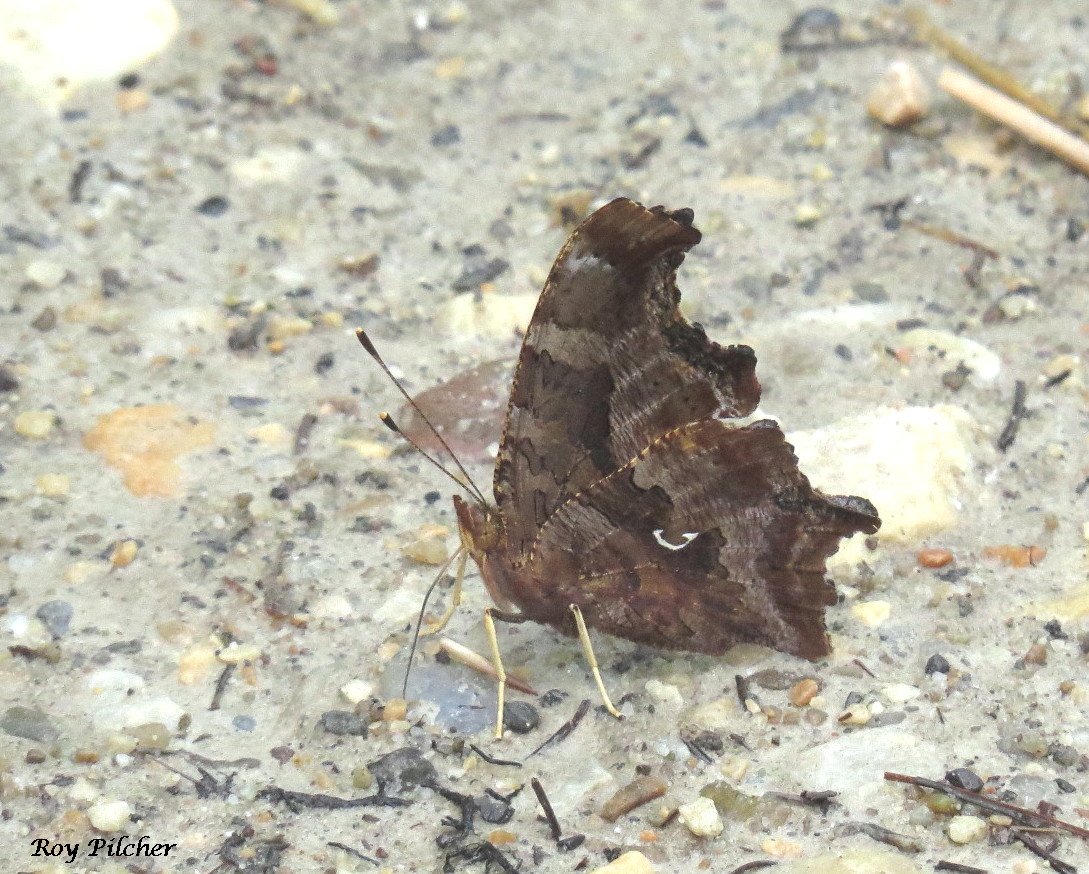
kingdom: Animalia
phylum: Arthropoda
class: Insecta
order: Lepidoptera
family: Nymphalidae
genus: Polygonia
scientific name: Polygonia comma
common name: Eastern Comma
